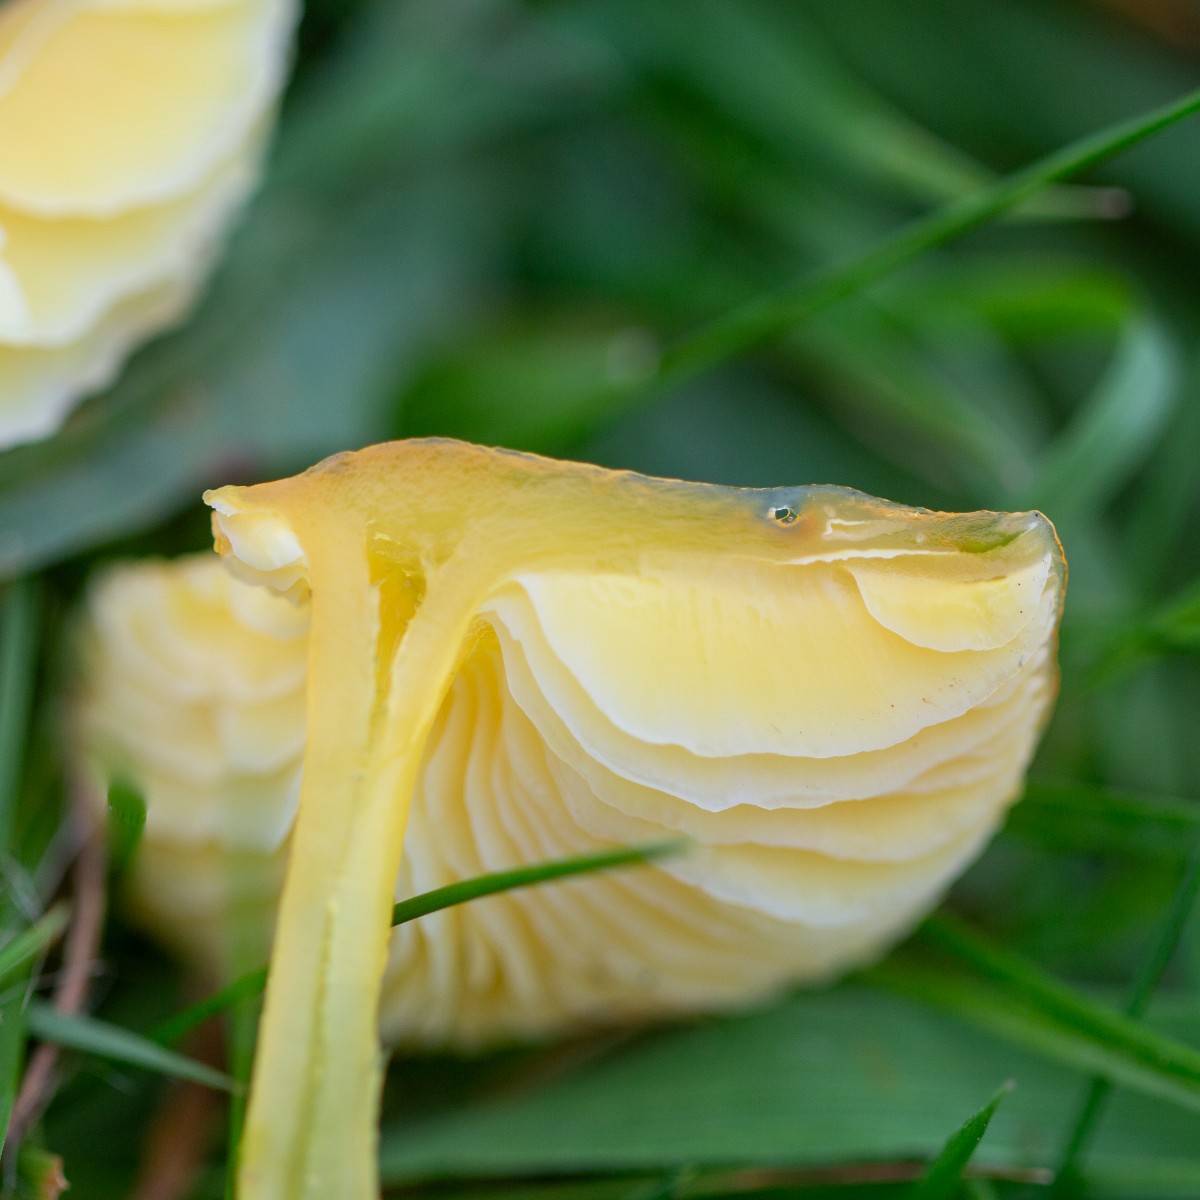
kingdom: Fungi
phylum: Basidiomycota
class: Agaricomycetes
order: Agaricales
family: Hygrophoraceae
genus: Hygrocybe
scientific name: Hygrocybe chlorophana
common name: gul vokshat
